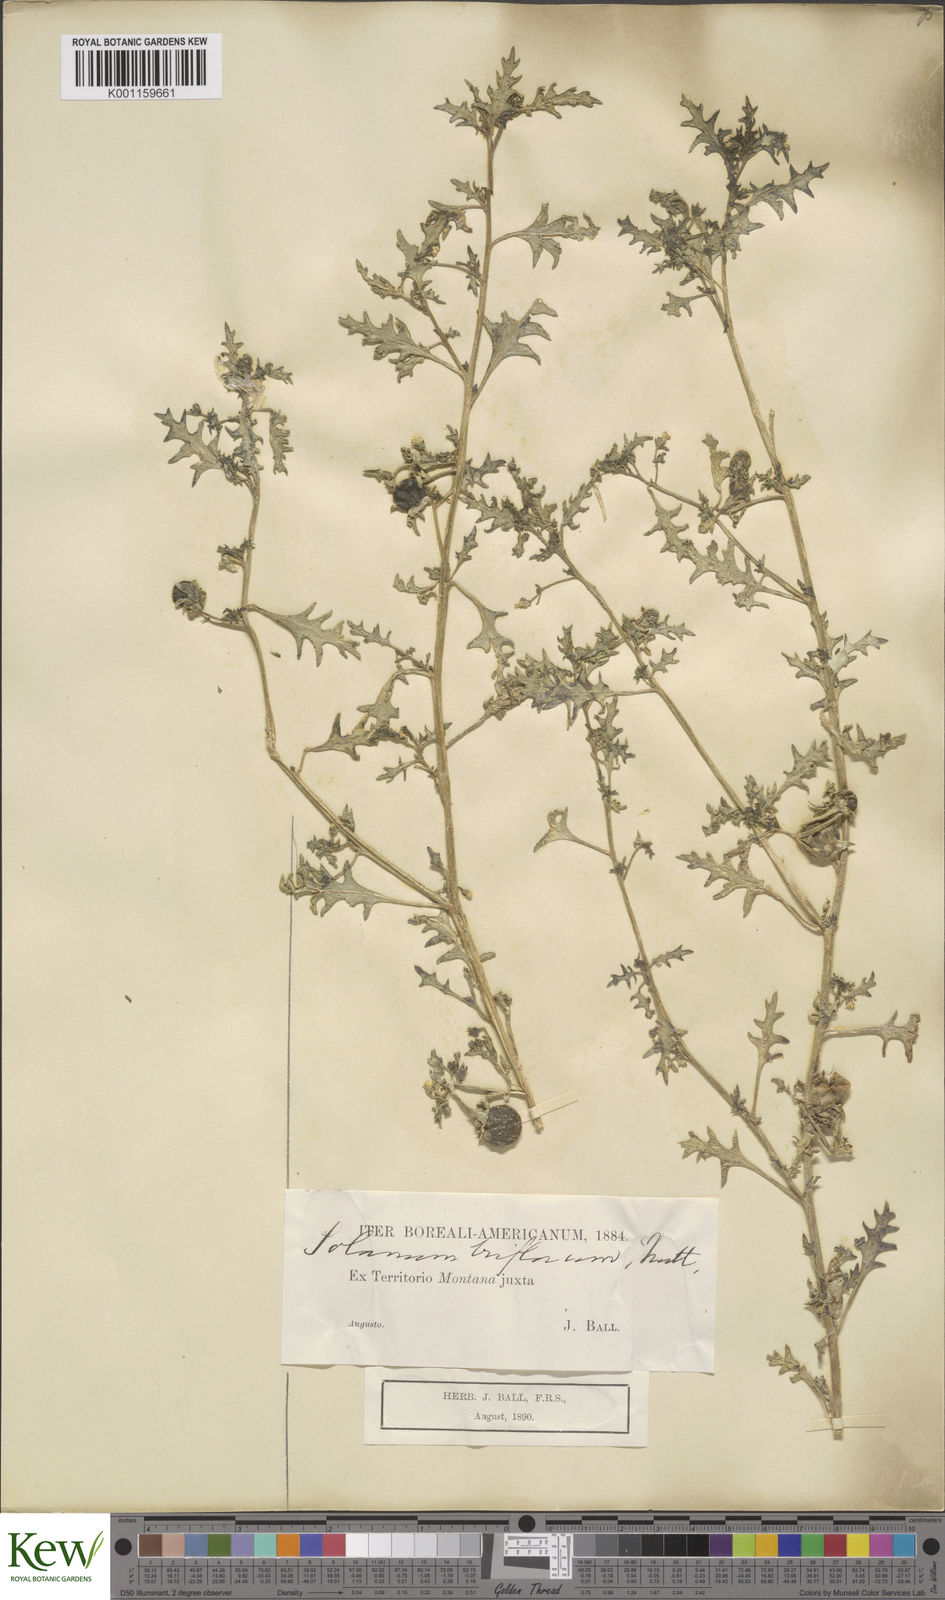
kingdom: Plantae
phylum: Tracheophyta
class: Magnoliopsida
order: Solanales
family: Solanaceae
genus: Solanum
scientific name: Solanum triflorum
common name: Small nightshade
